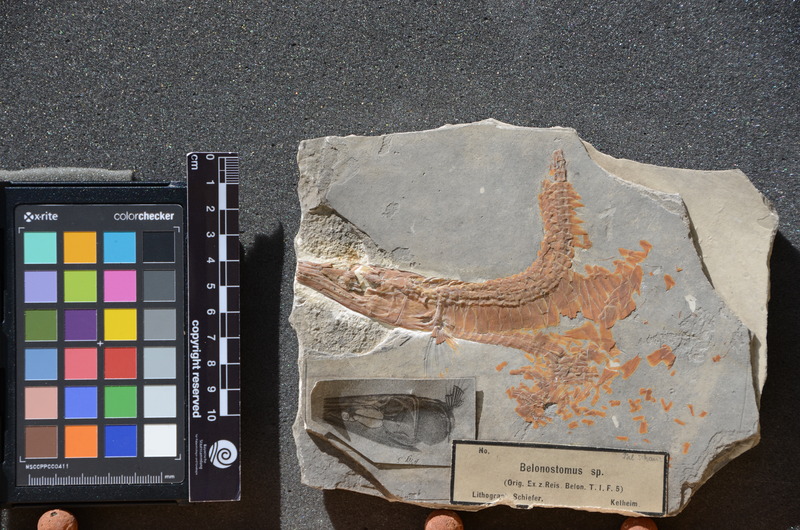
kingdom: Animalia
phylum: Chordata
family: Aspidorhynchidae
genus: Belonostomus
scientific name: Belonostomus
